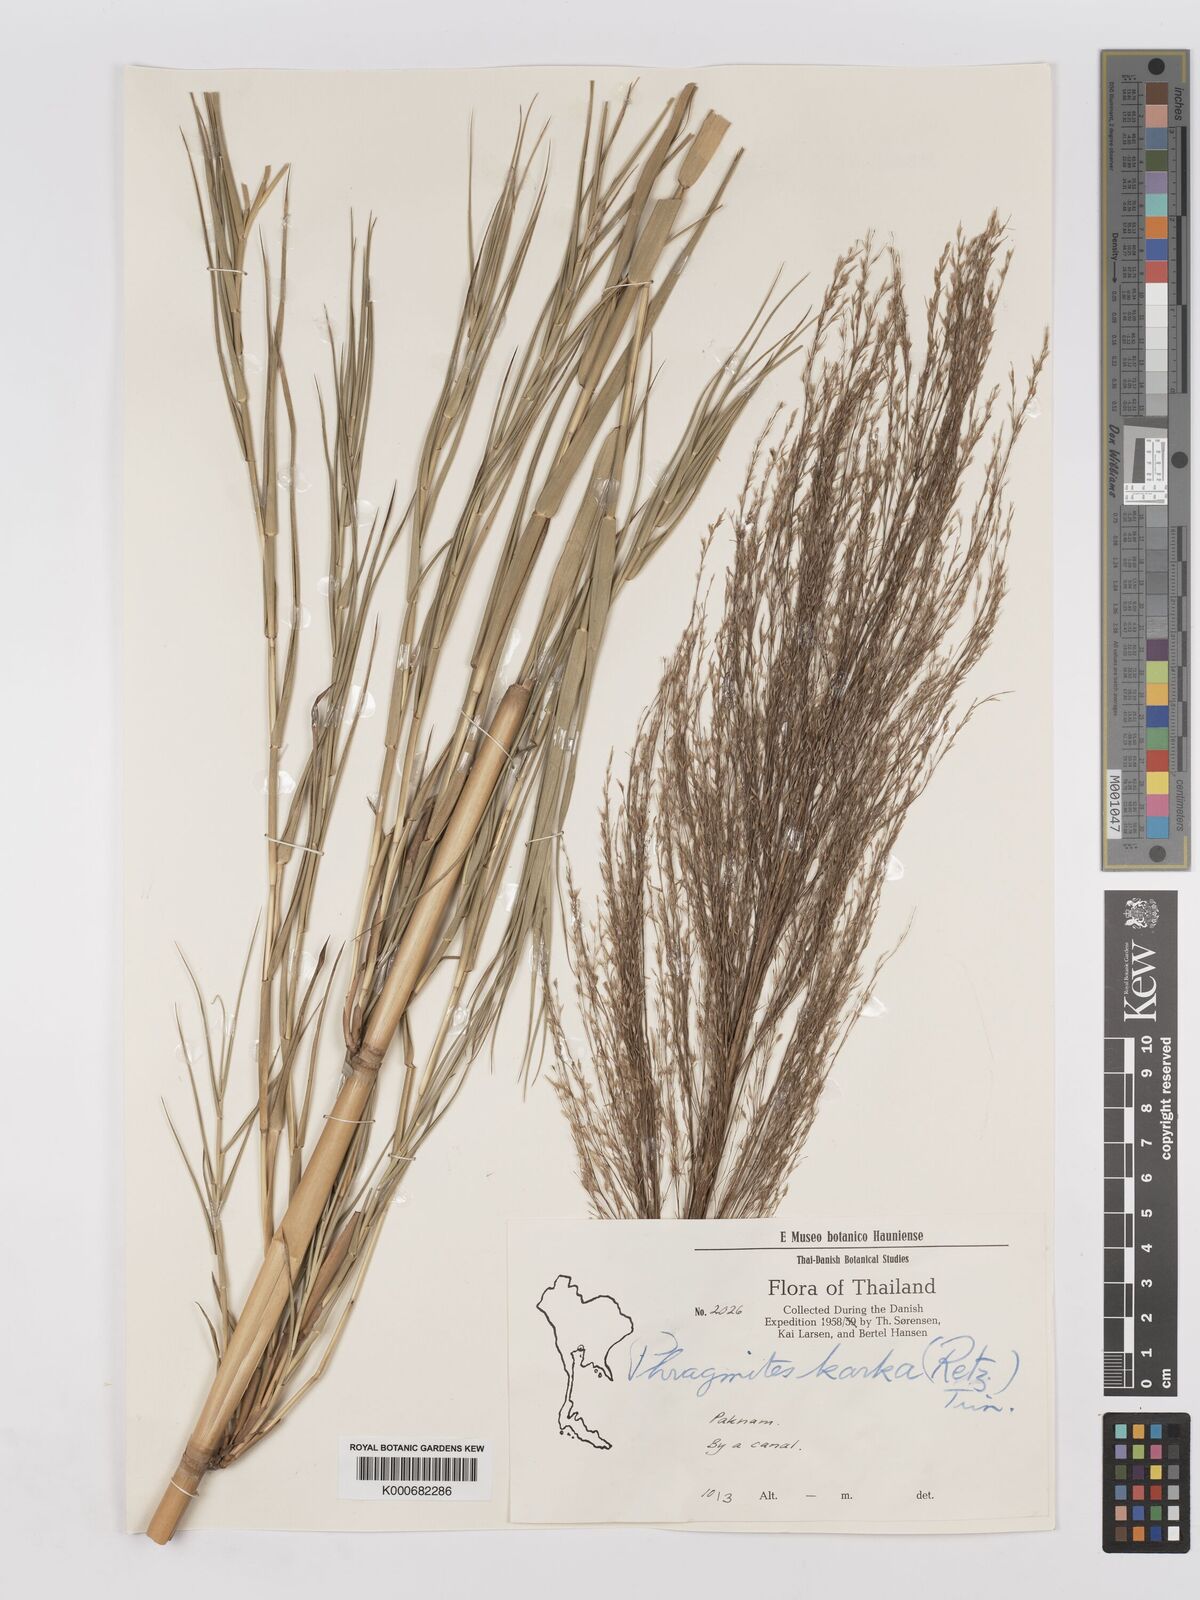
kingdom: Plantae
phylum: Tracheophyta
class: Liliopsida
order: Poales
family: Poaceae
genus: Phragmites
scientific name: Phragmites karka
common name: Tropical reed
